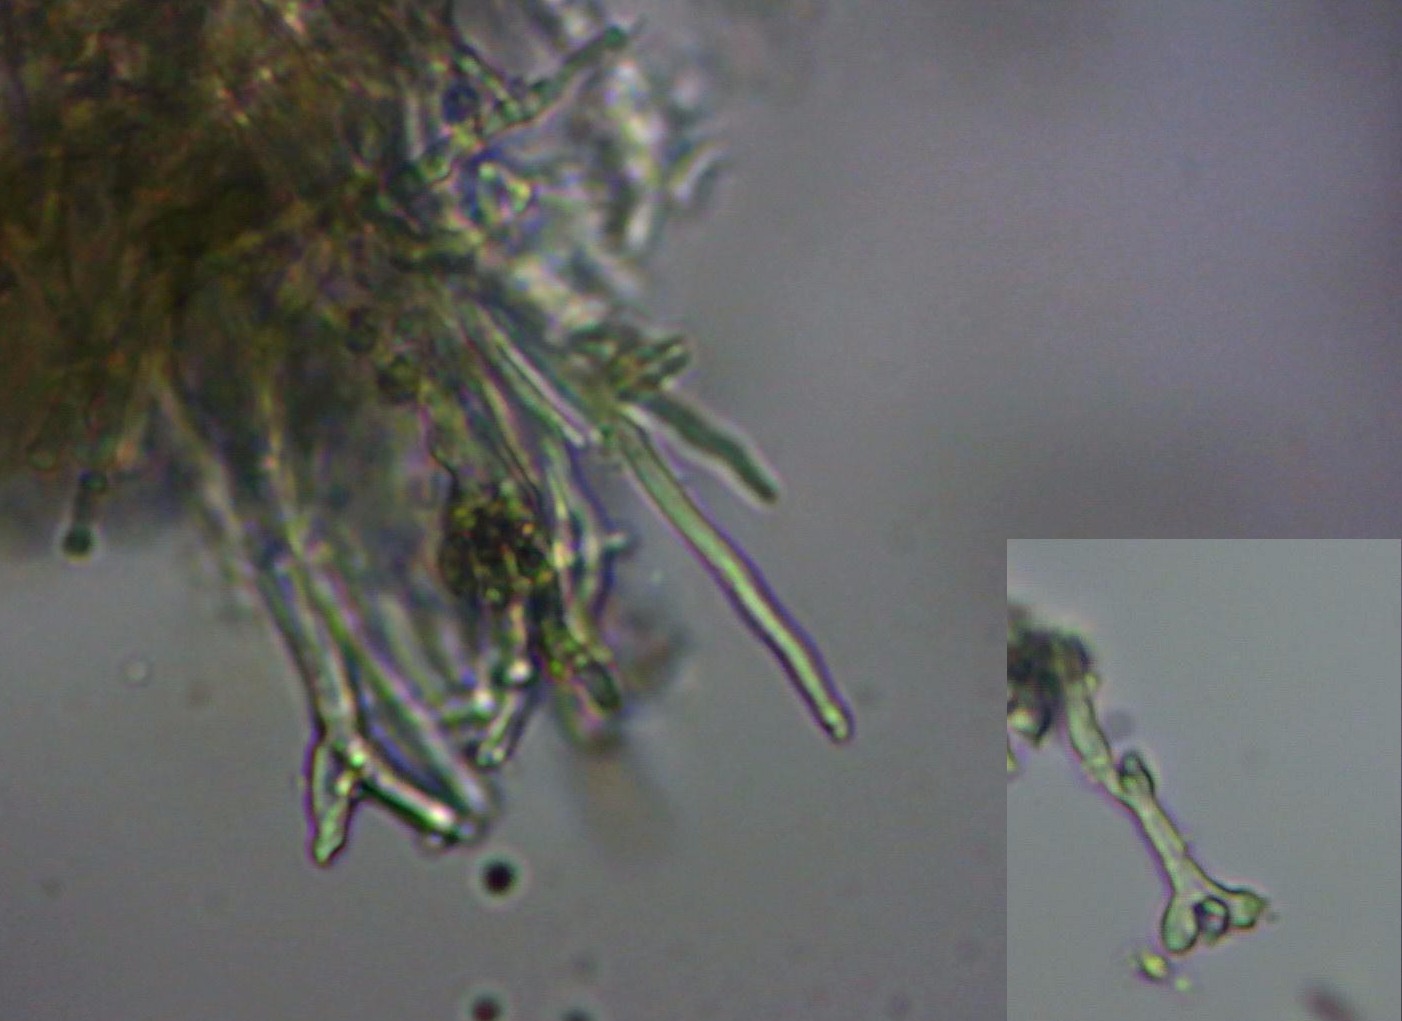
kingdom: Fungi
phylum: Ascomycota
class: Lecanoromycetes
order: Lecanorales
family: Cladoniaceae
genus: Cladonia
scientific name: Cladonia digitata
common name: finger-bægerlav
